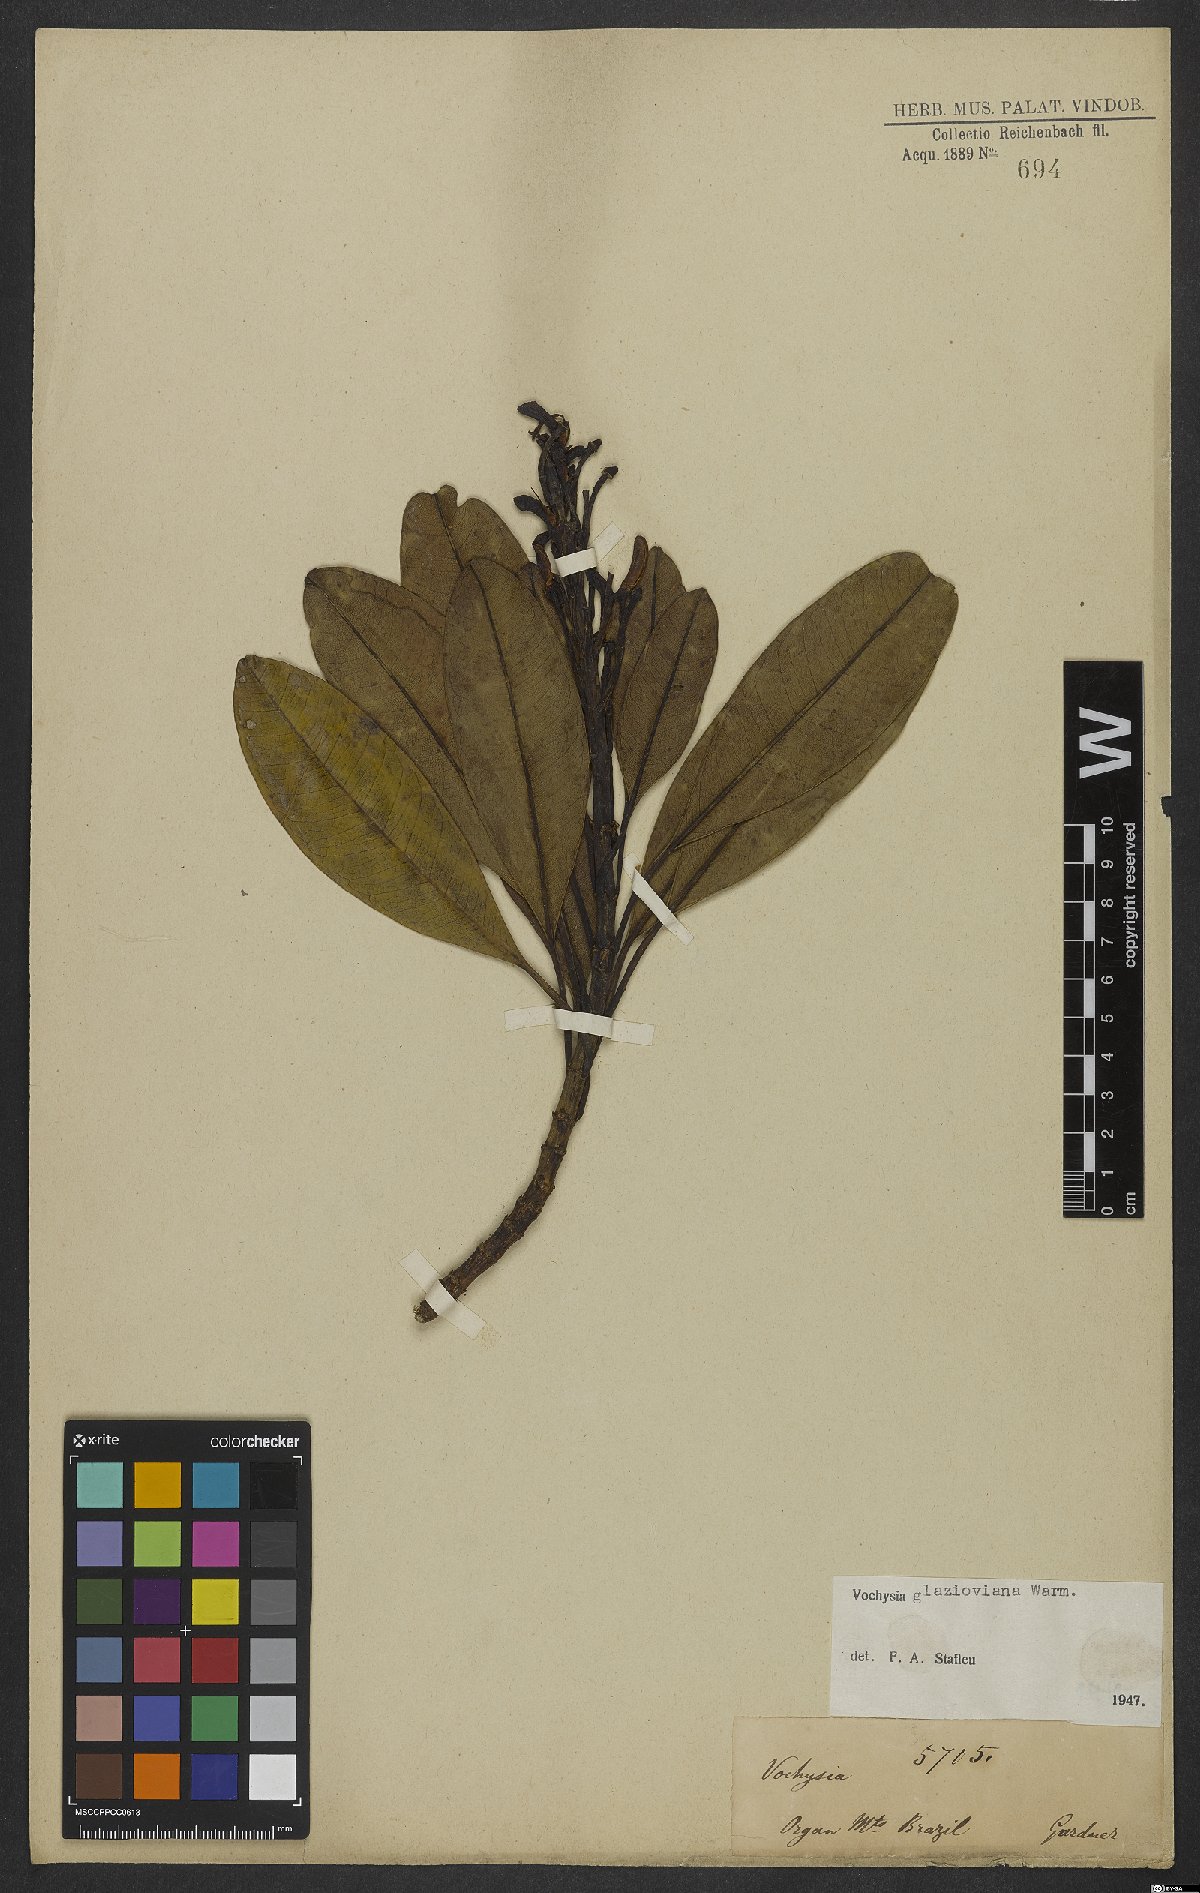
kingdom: Plantae
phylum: Tracheophyta
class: Magnoliopsida
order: Myrtales
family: Vochysiaceae
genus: Vochysia
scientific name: Vochysia glazioviana
